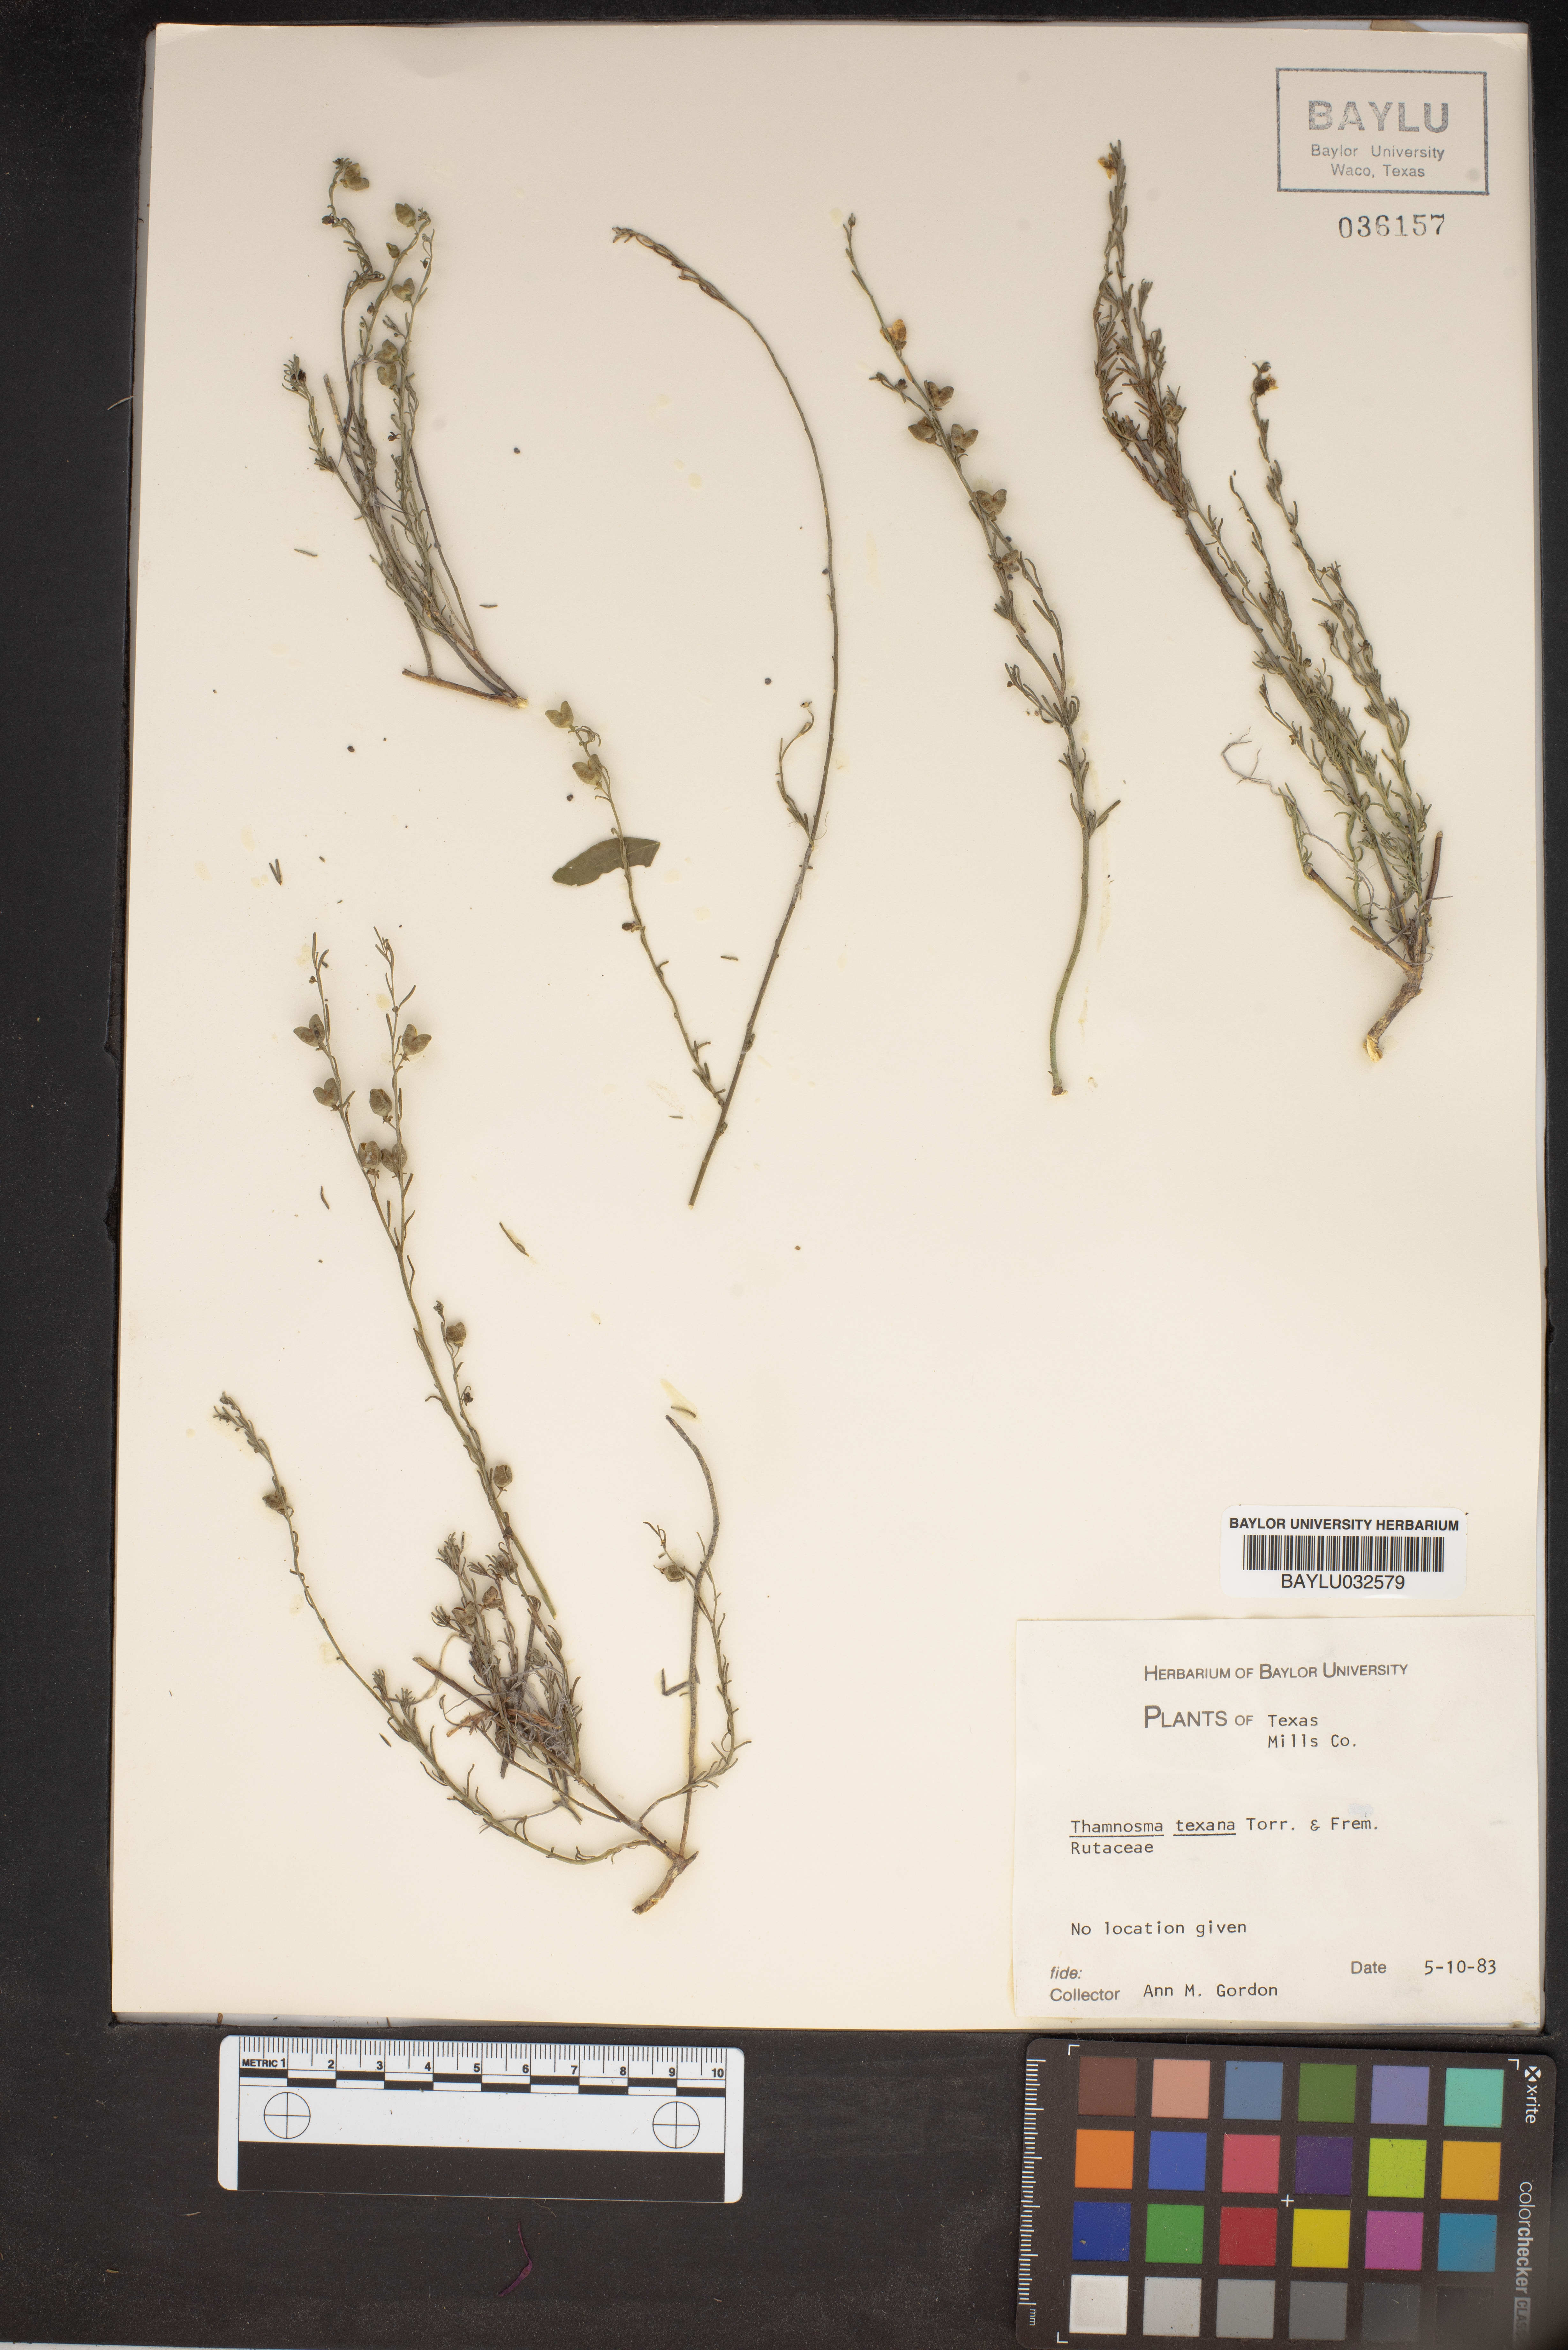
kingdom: Plantae
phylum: Tracheophyta
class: Magnoliopsida
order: Sapindales
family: Rutaceae
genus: Thamnosma
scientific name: Thamnosma texana
